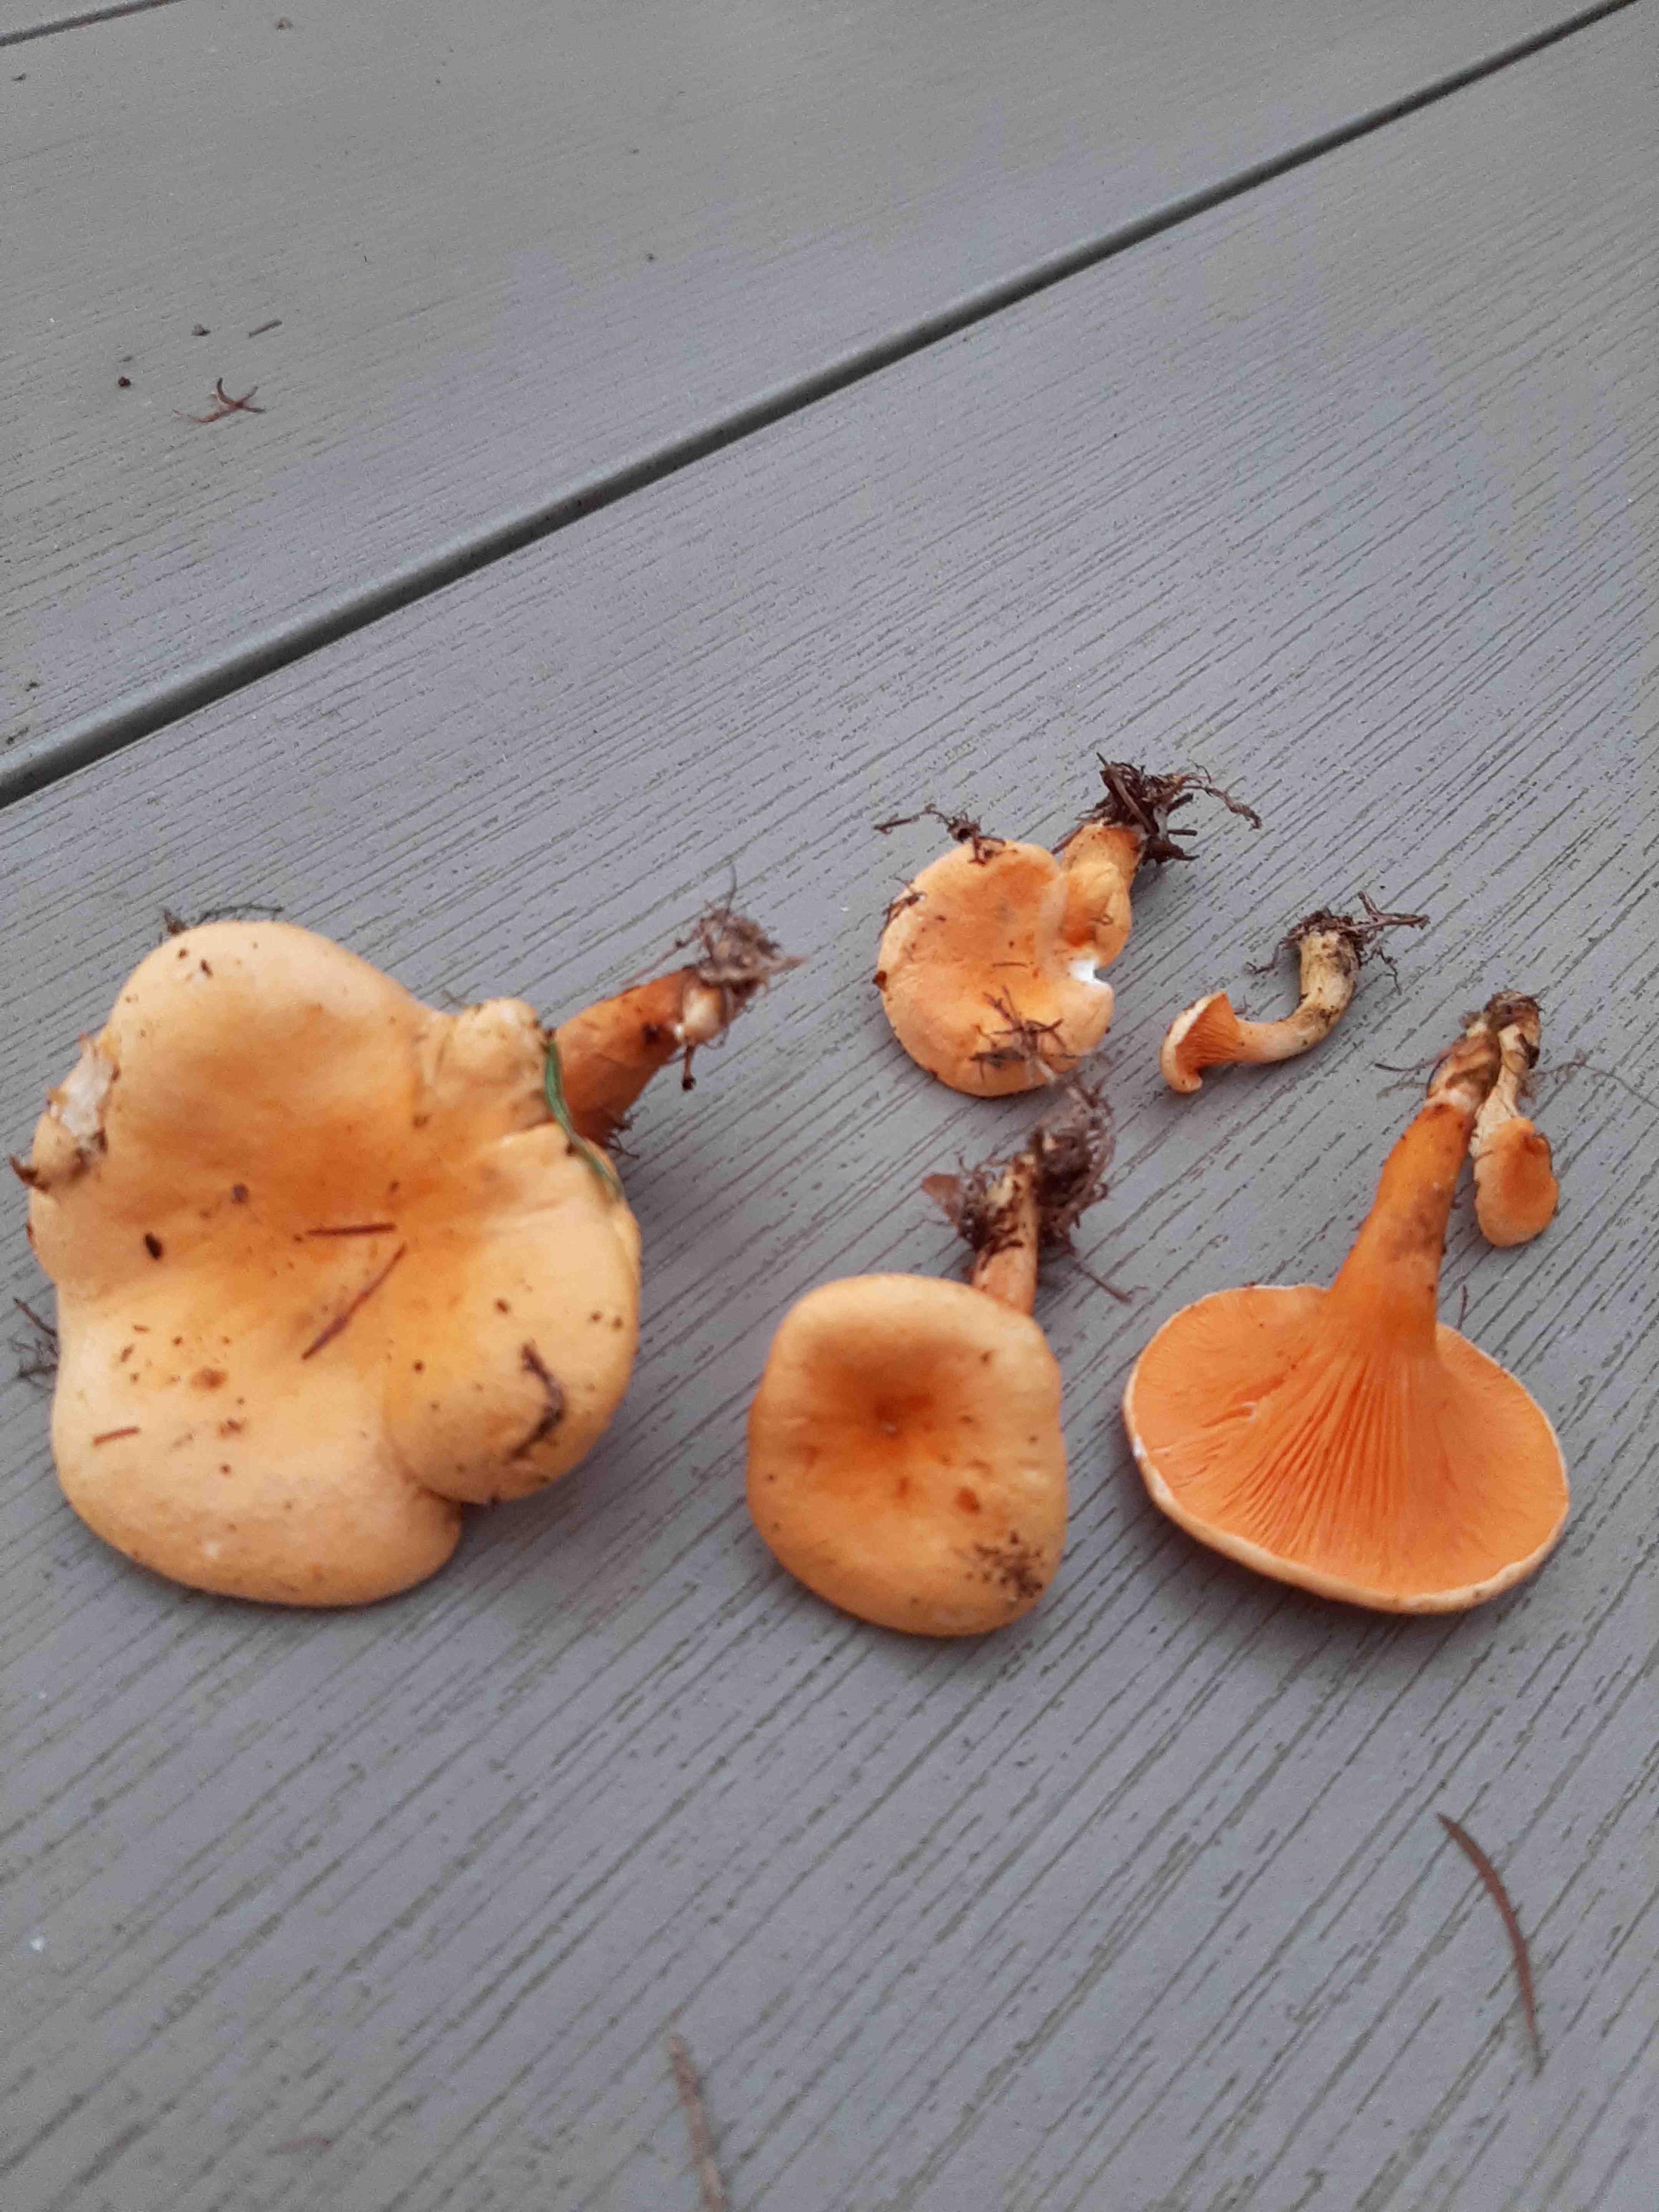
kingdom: Fungi
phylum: Basidiomycota
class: Agaricomycetes
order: Boletales
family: Hygrophoropsidaceae
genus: Hygrophoropsis
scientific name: Hygrophoropsis aurantiaca
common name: almindelig orangekantarel
